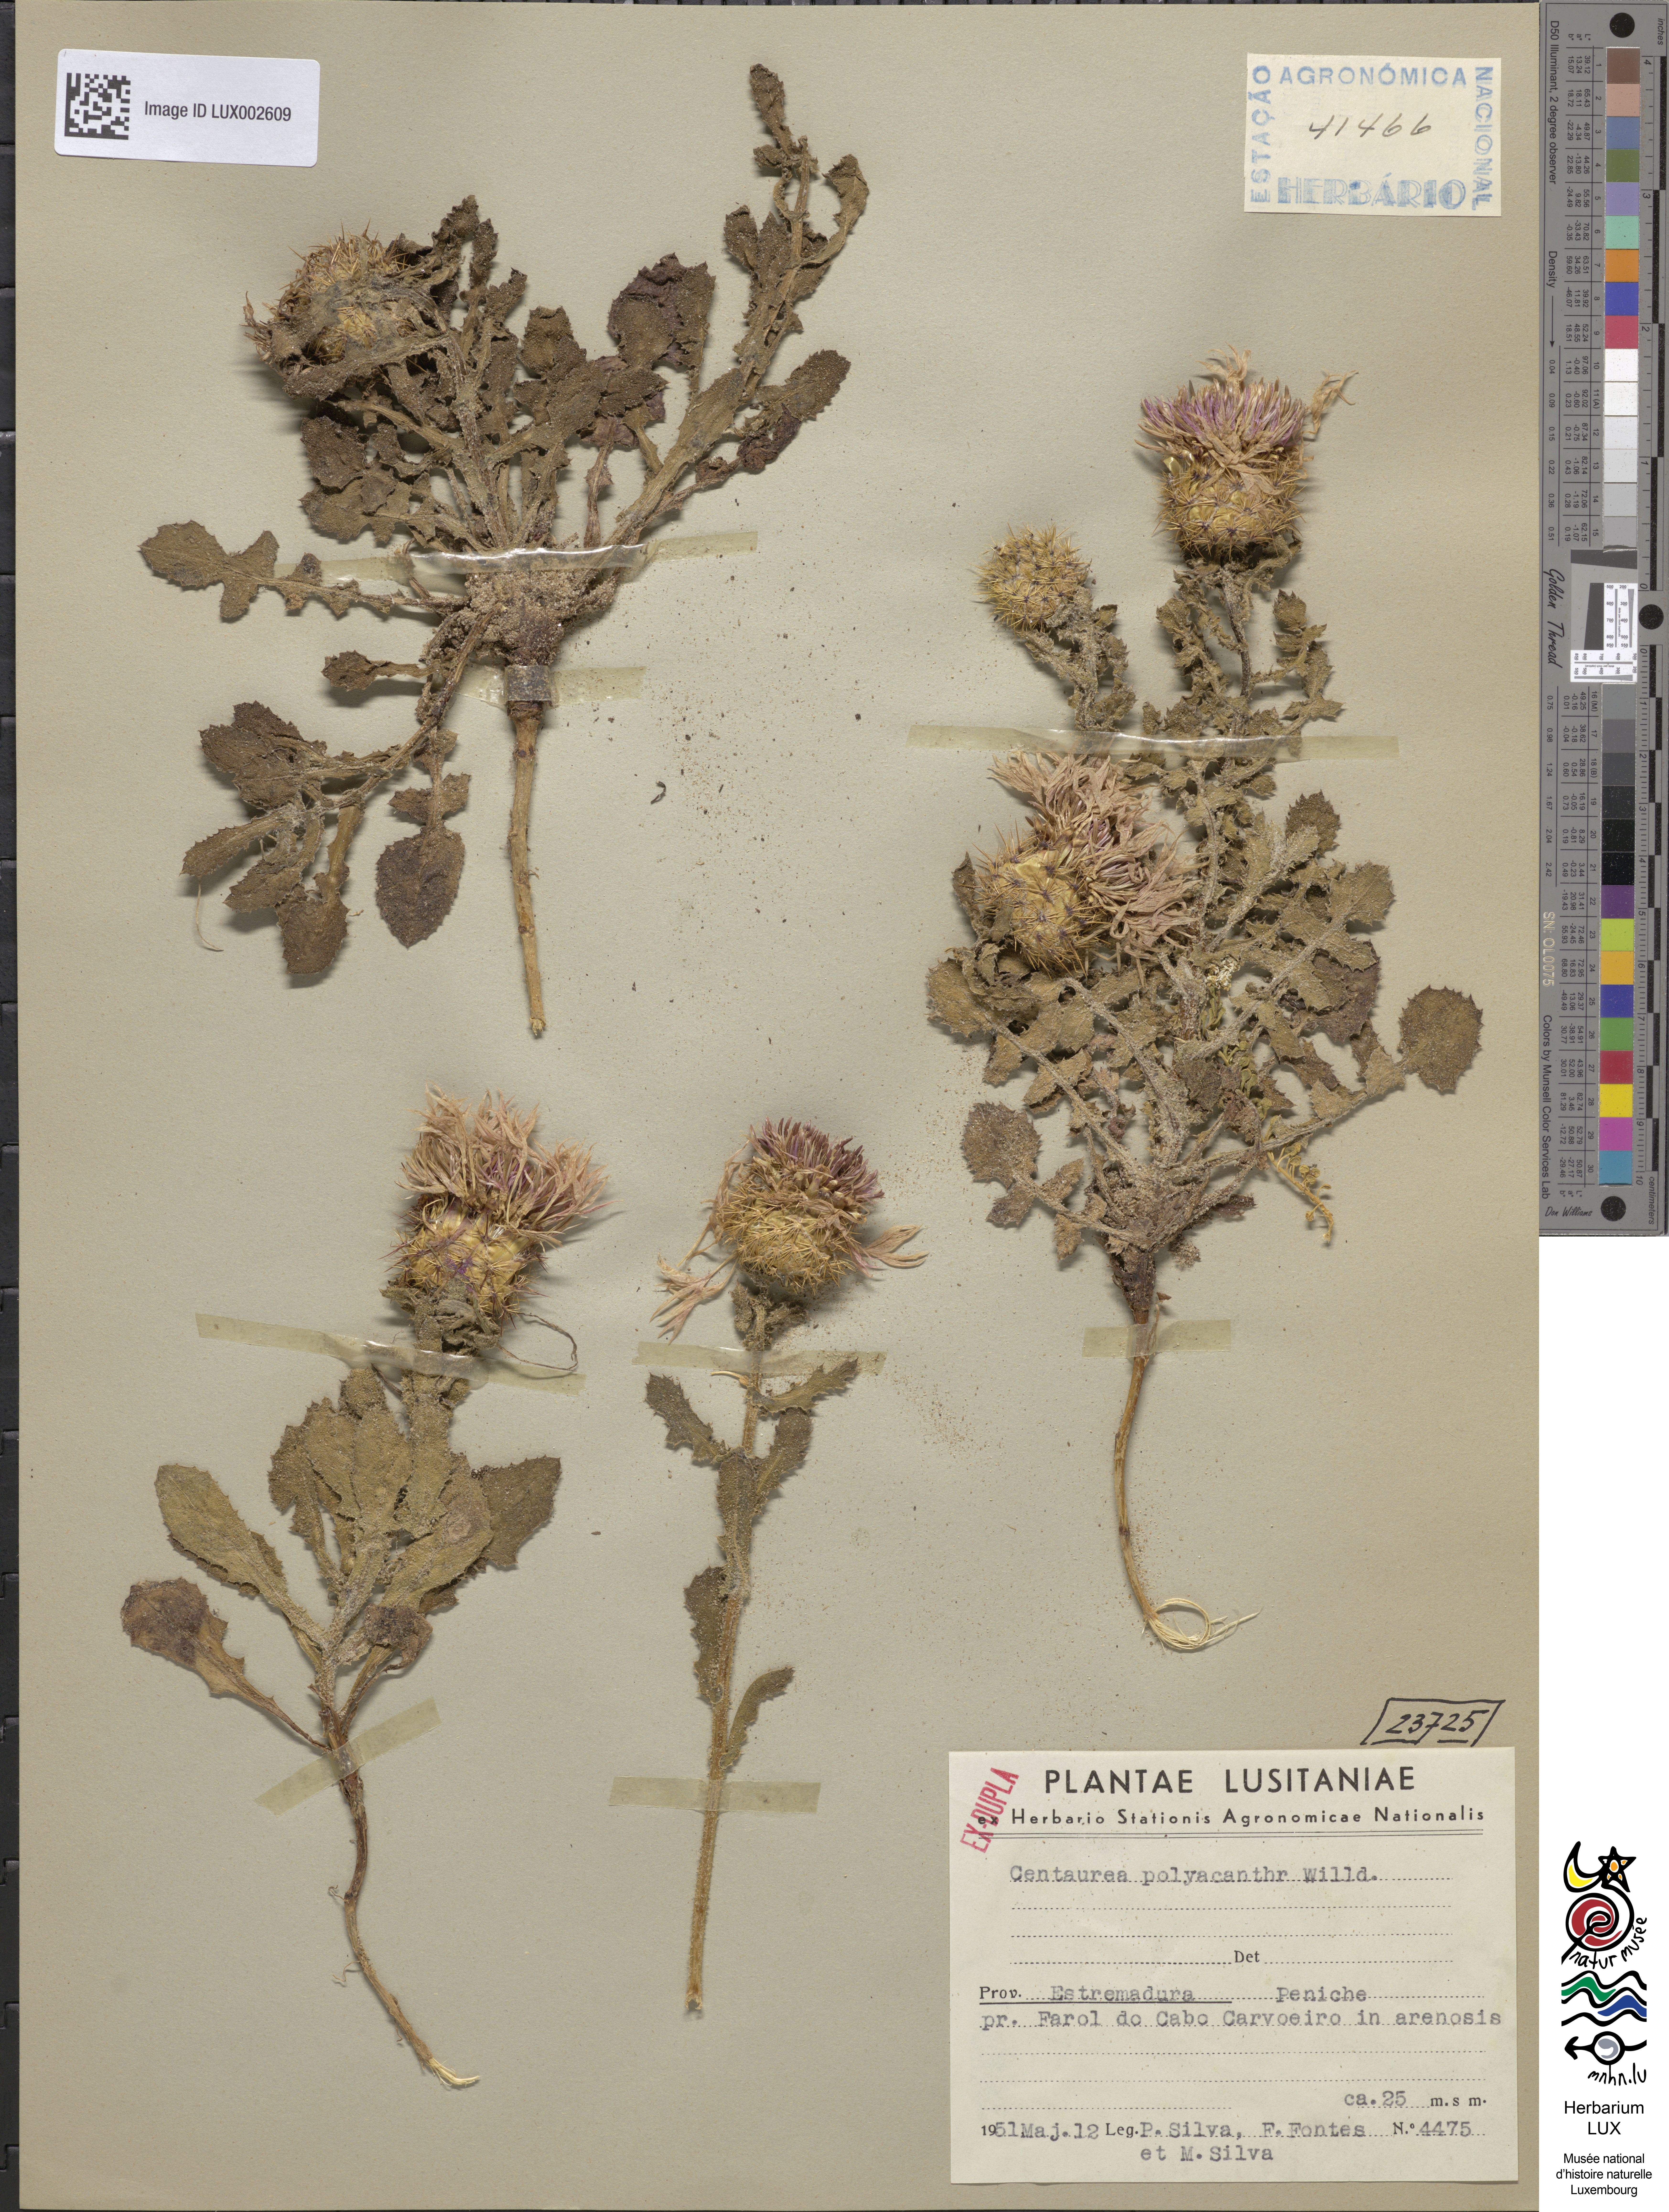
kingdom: Plantae
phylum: Tracheophyta
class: Magnoliopsida
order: Asterales
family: Asteraceae
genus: Centaurea
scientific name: Centaurea polyacantha
